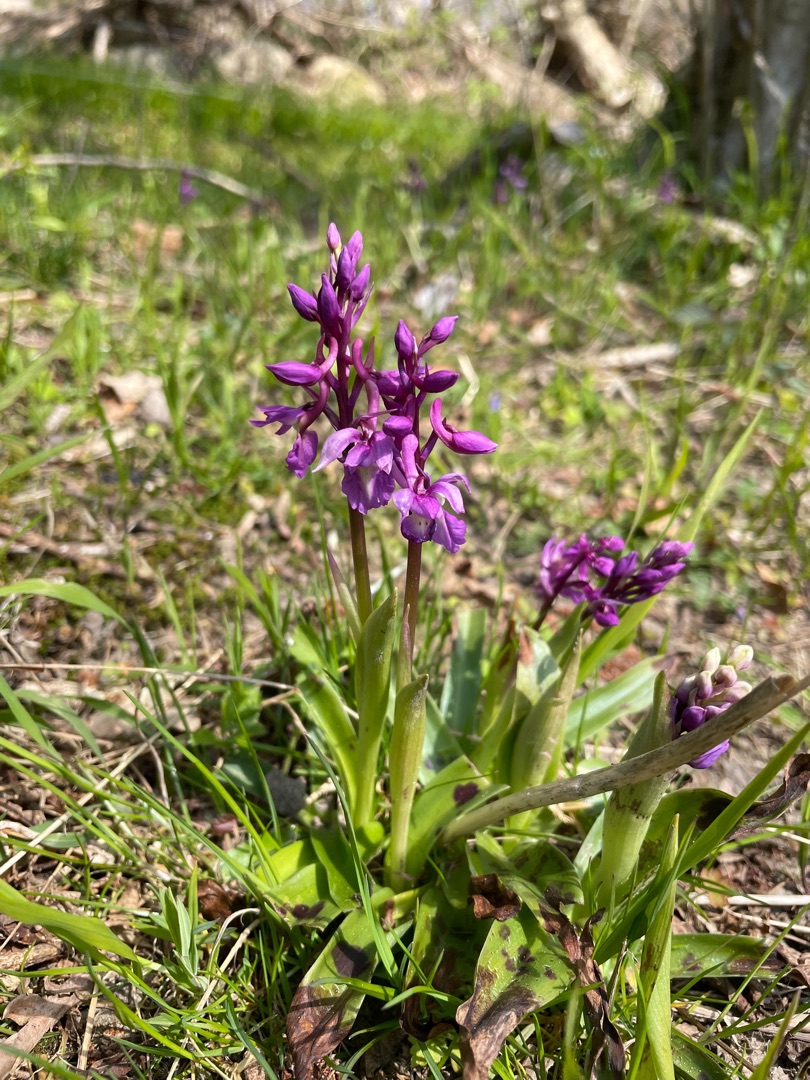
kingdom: Plantae
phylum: Tracheophyta
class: Liliopsida
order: Asparagales
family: Orchidaceae
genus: Orchis
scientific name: Orchis mascula
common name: Tyndakset gøgeurt
